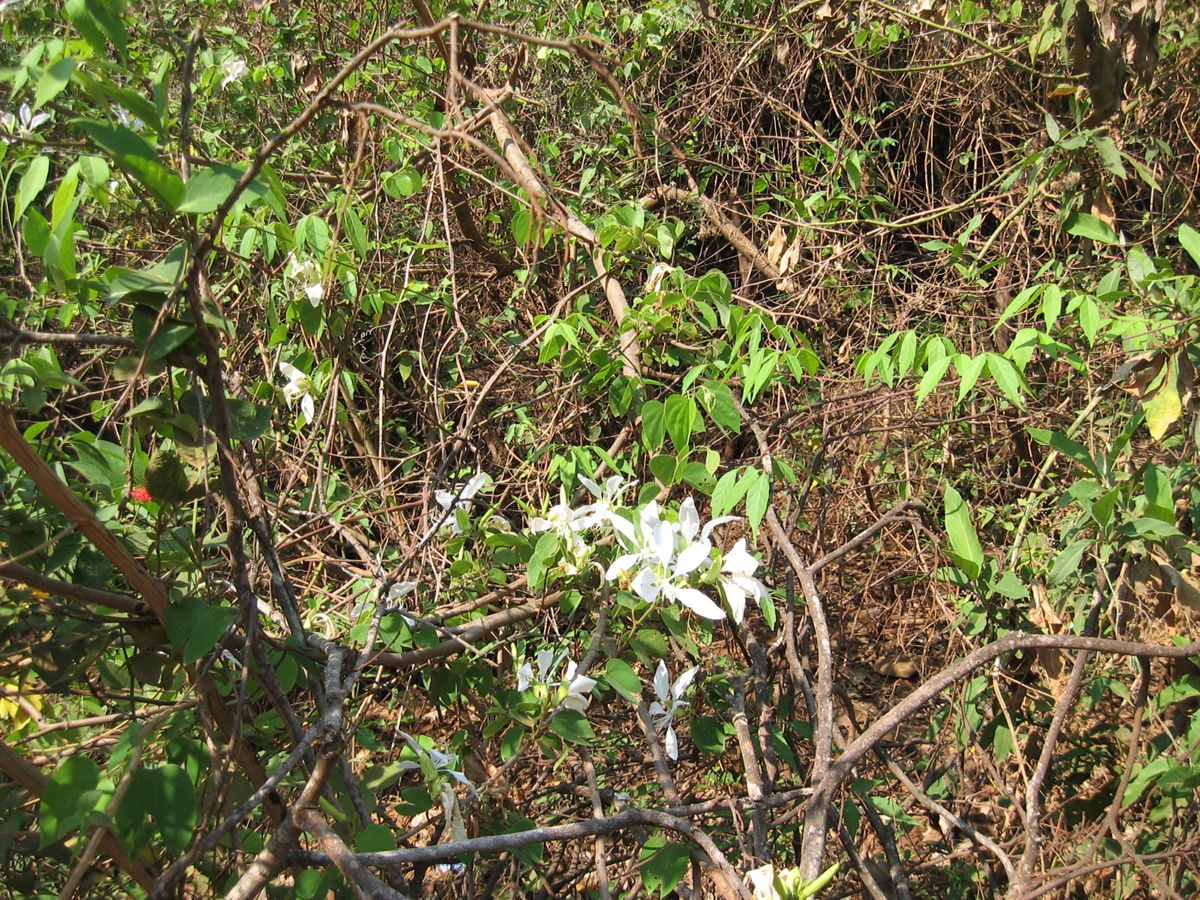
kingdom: Plantae
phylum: Tracheophyta
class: Magnoliopsida
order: Fabales
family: Fabaceae
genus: Bauhinia
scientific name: Bauhinia aculeata
